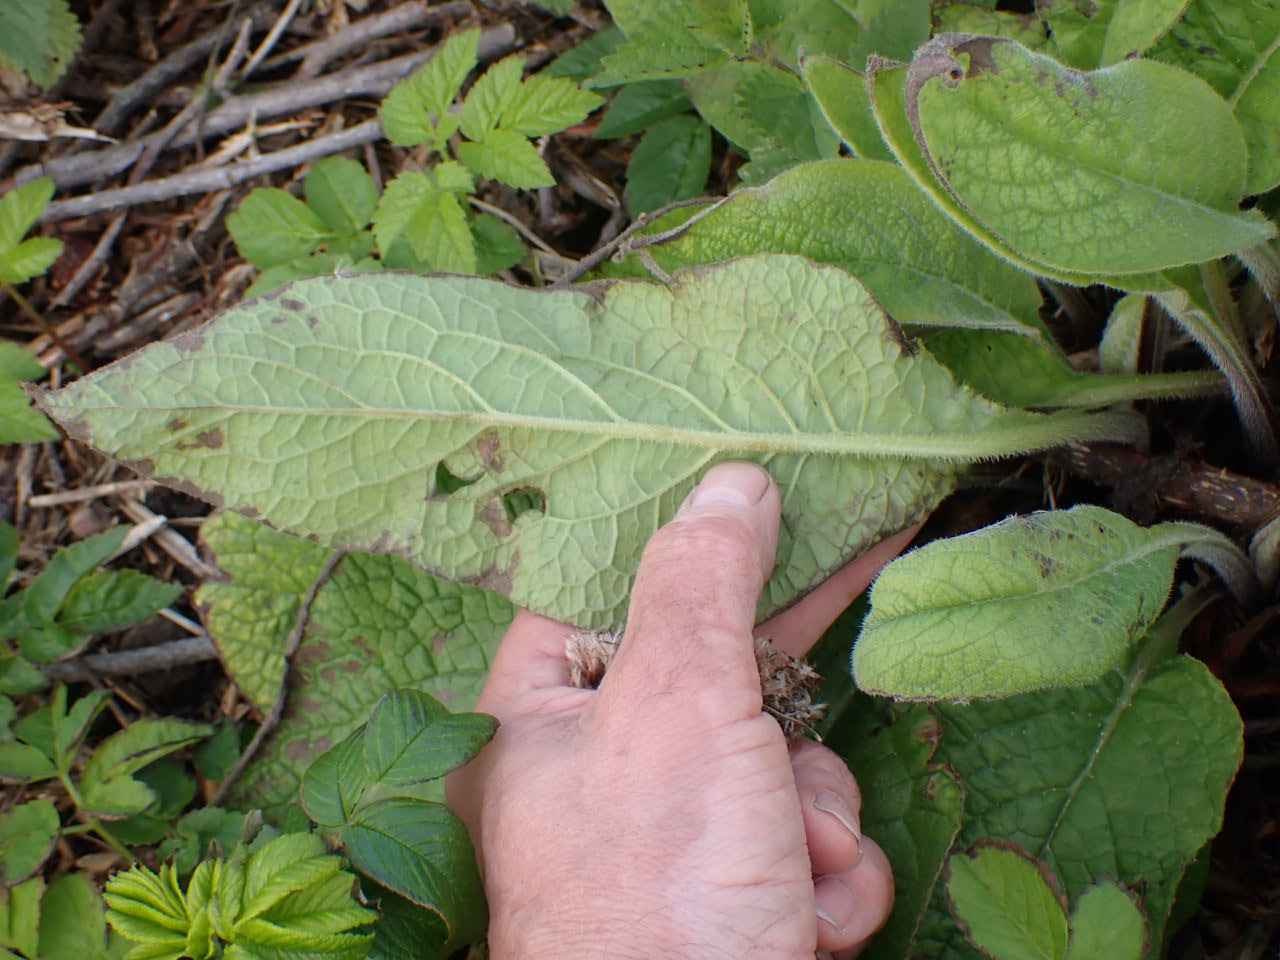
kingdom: Plantae
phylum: Tracheophyta
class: Magnoliopsida
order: Boraginales
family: Boraginaceae
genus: Symphytum
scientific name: Symphytum
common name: Kulsukkerslægten
